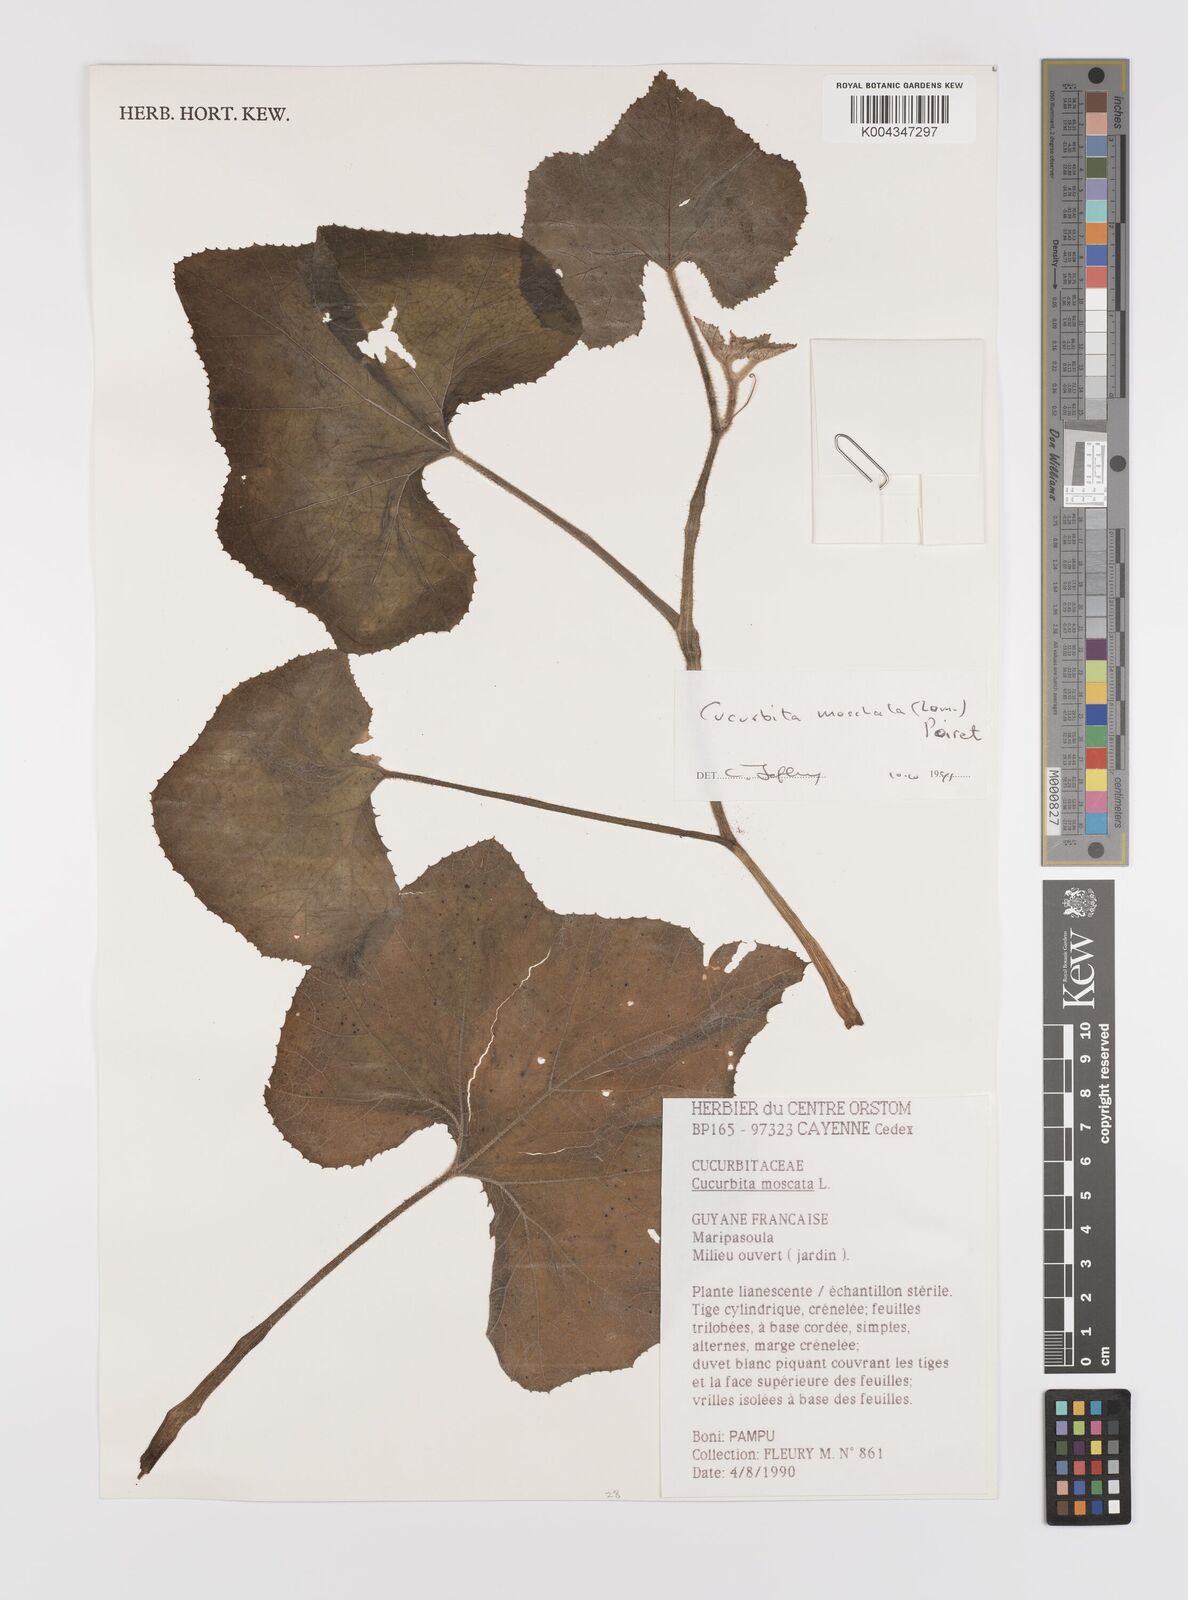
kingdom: Plantae
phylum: Tracheophyta
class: Magnoliopsida
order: Cucurbitales
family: Cucurbitaceae
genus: Cucurbita
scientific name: Cucurbita moschata
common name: Squash / pumpkin
